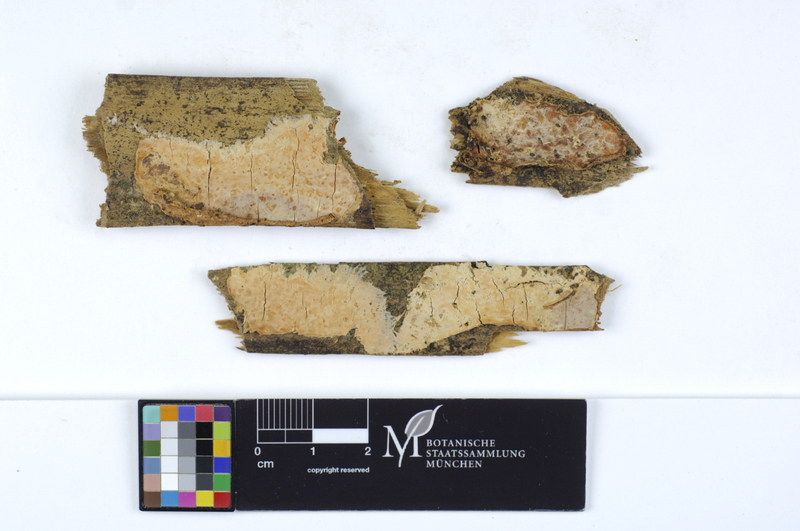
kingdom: Plantae
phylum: Tracheophyta
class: Pinopsida
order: Pinales
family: Pinaceae
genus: Pinus
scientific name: Pinus
